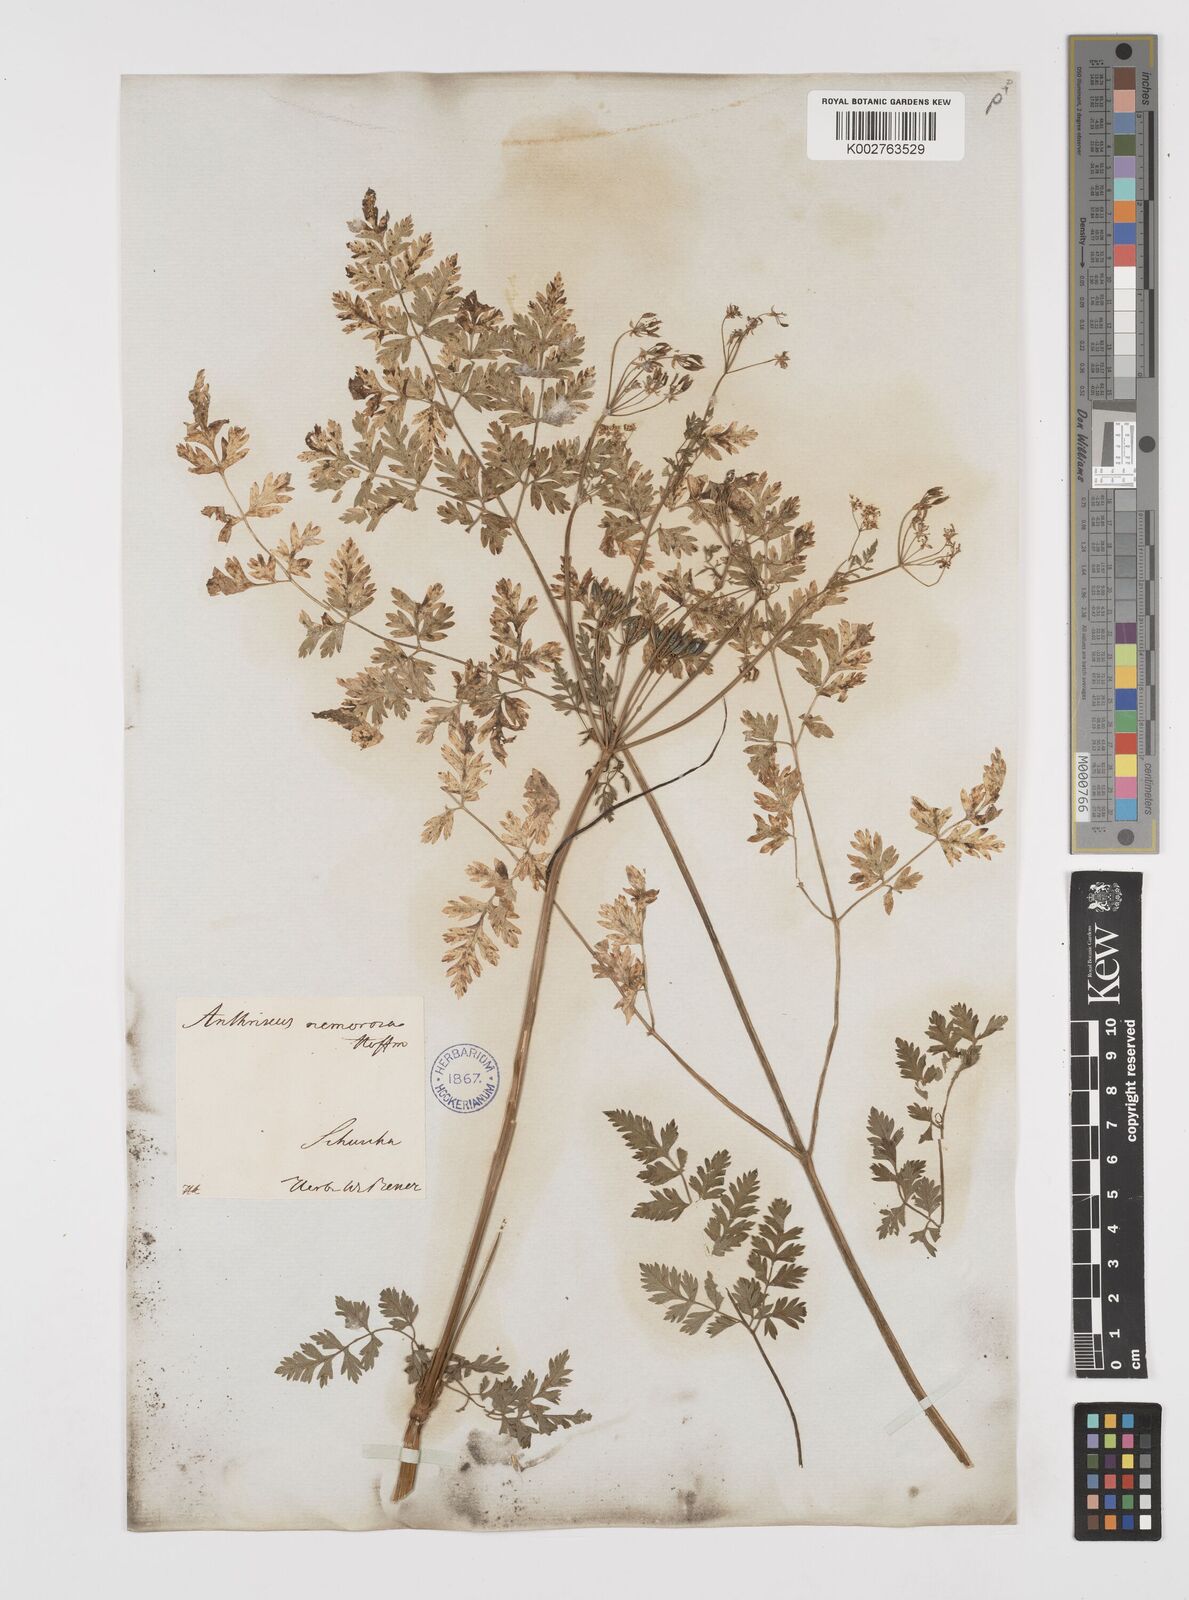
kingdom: Plantae
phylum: Tracheophyta
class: Magnoliopsida
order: Apiales
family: Apiaceae
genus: Anthriscus
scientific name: Anthriscus sylvestris
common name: Cow parsley
